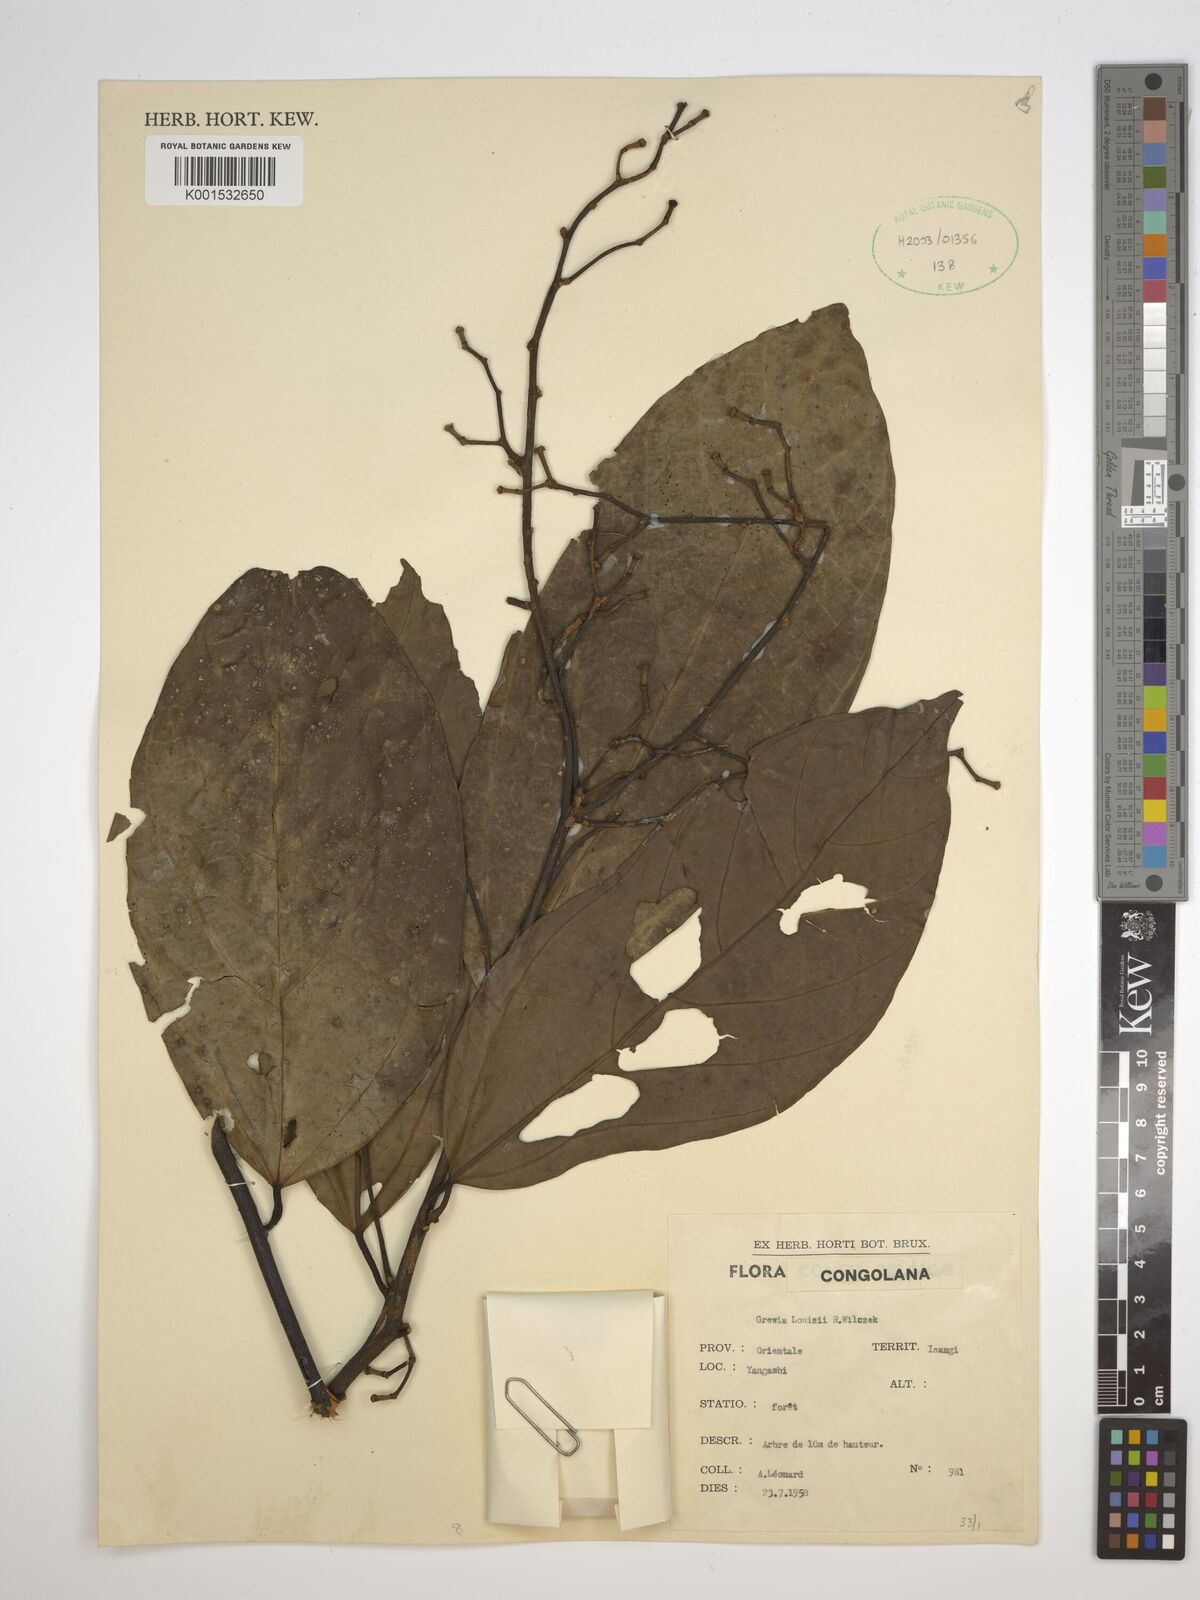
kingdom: Plantae
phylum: Tracheophyta
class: Magnoliopsida
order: Malvales
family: Malvaceae
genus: Grewia
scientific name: Grewia louisii
